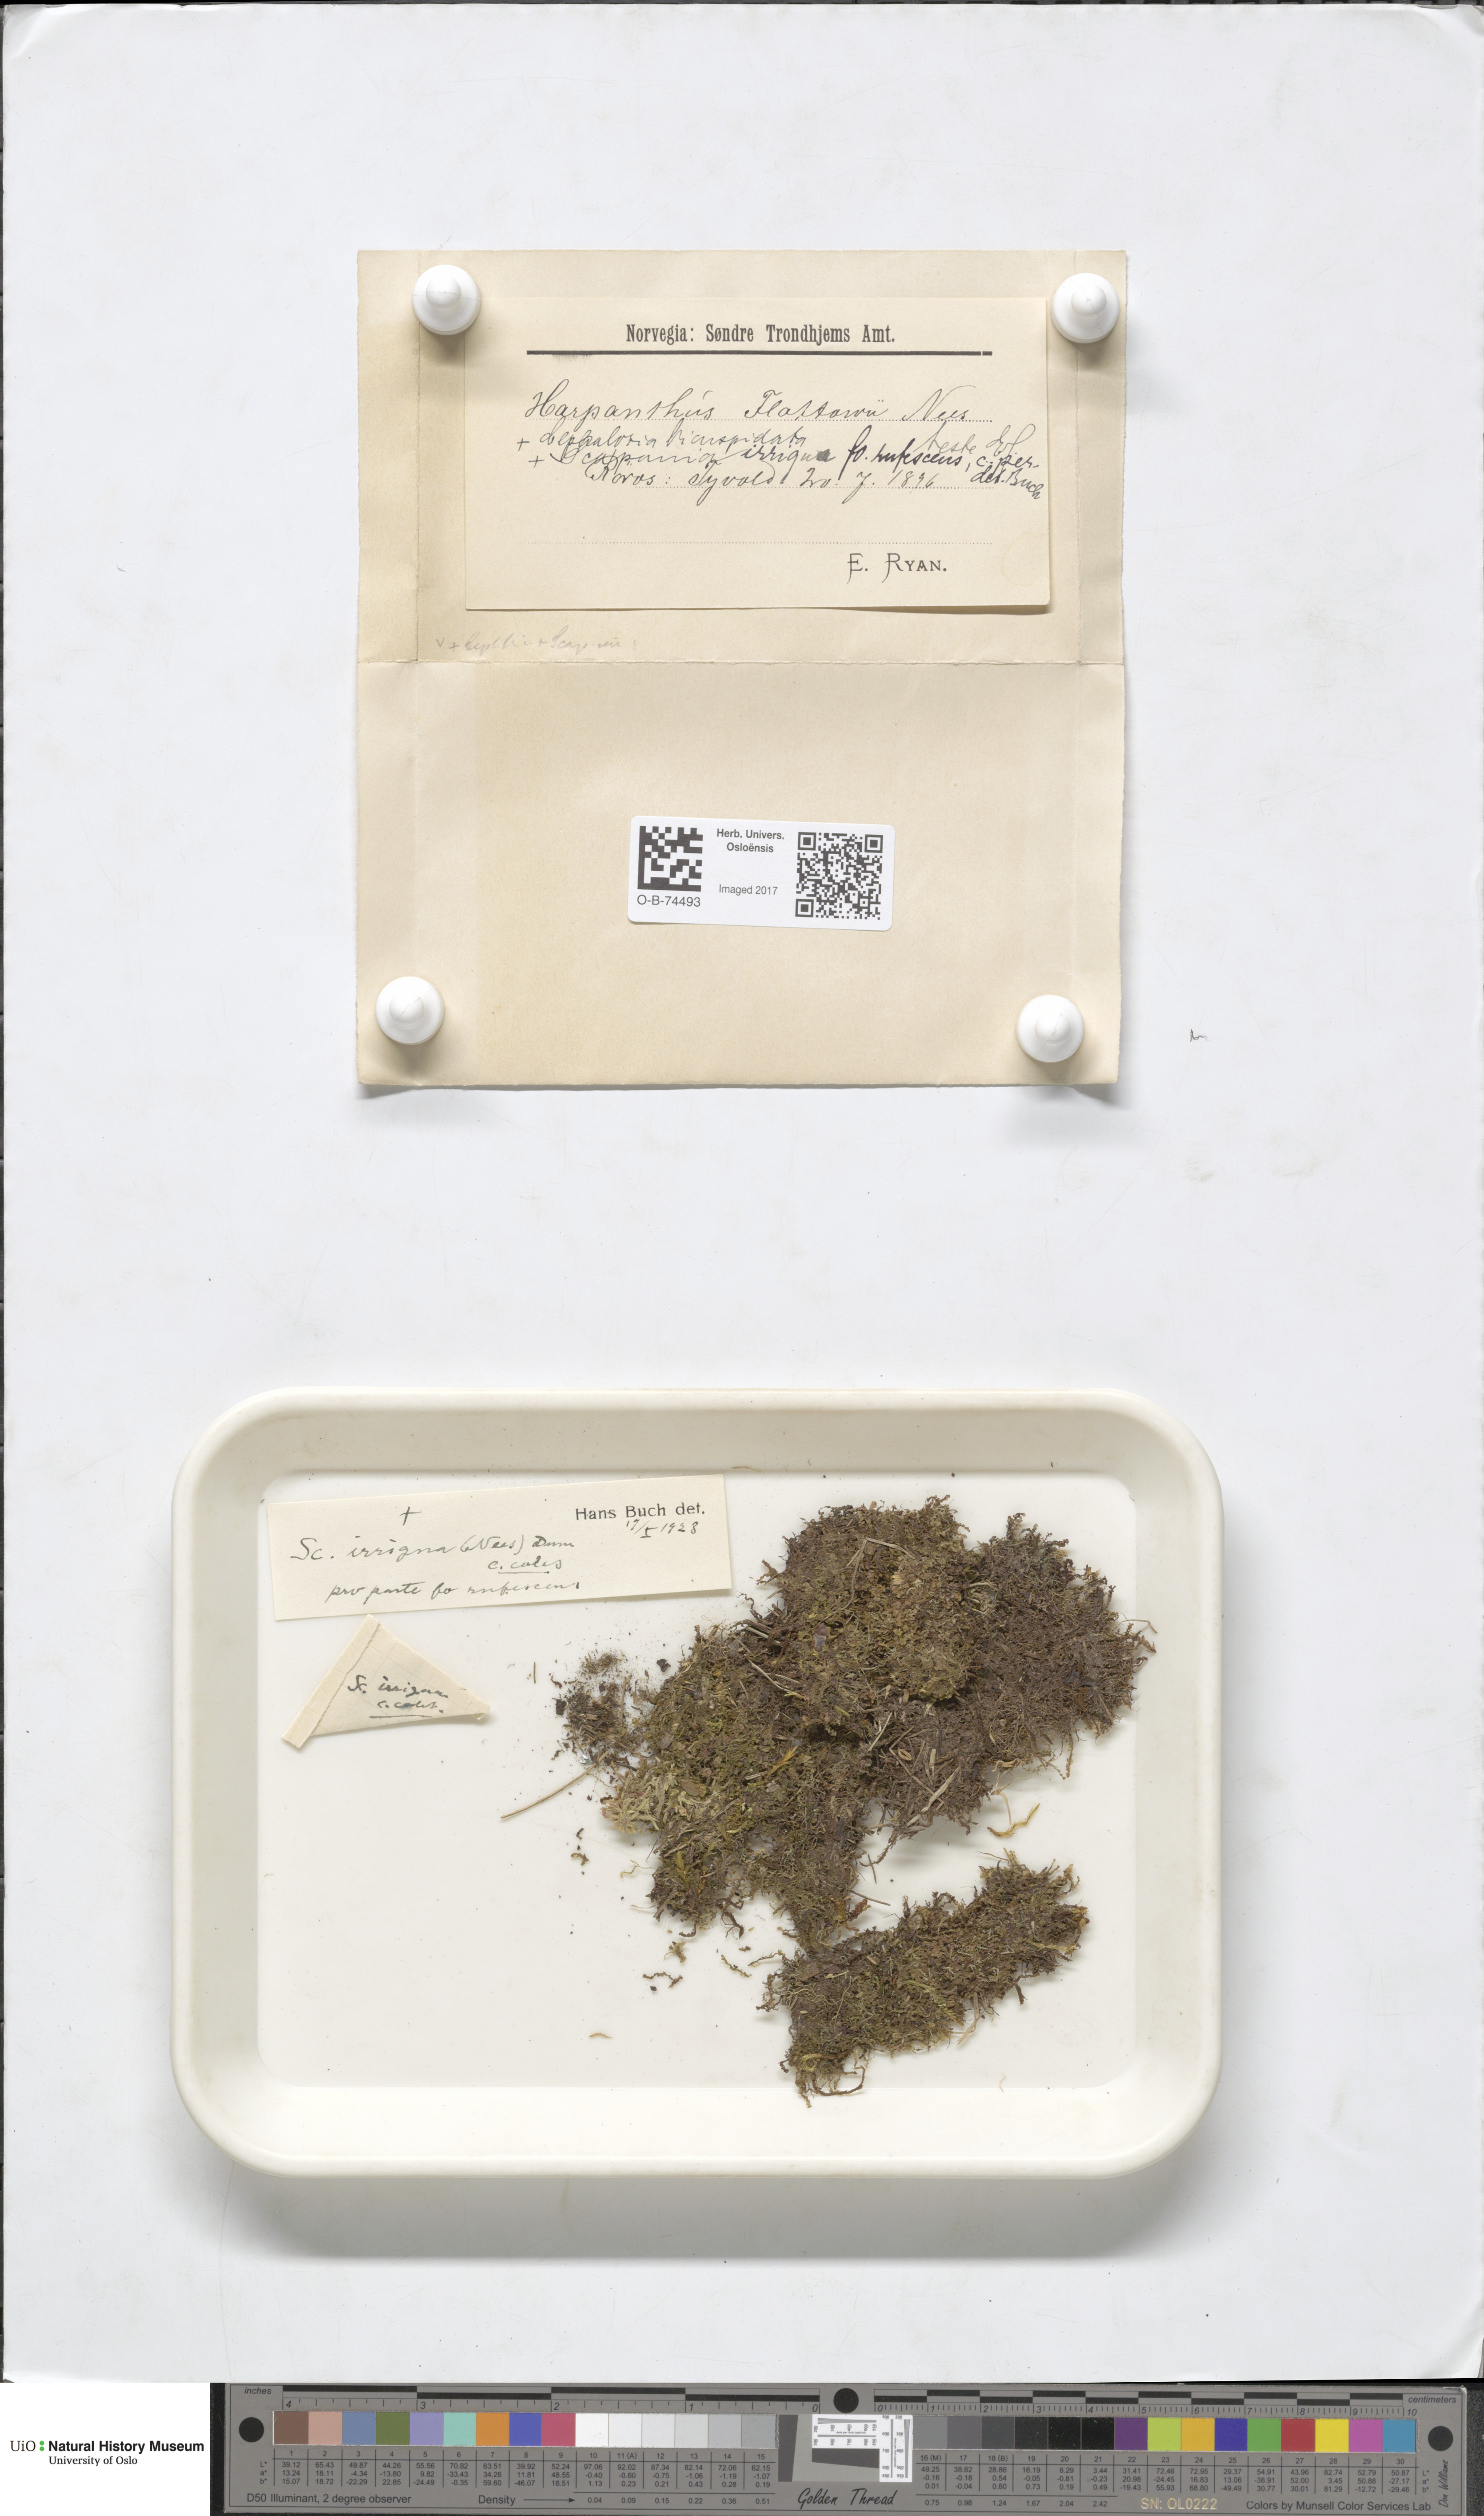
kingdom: Plantae
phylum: Marchantiophyta
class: Jungermanniopsida
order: Jungermanniales
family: Harpanthaceae
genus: Harpanthus
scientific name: Harpanthus flotovianus
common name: Great mountain flapwort
